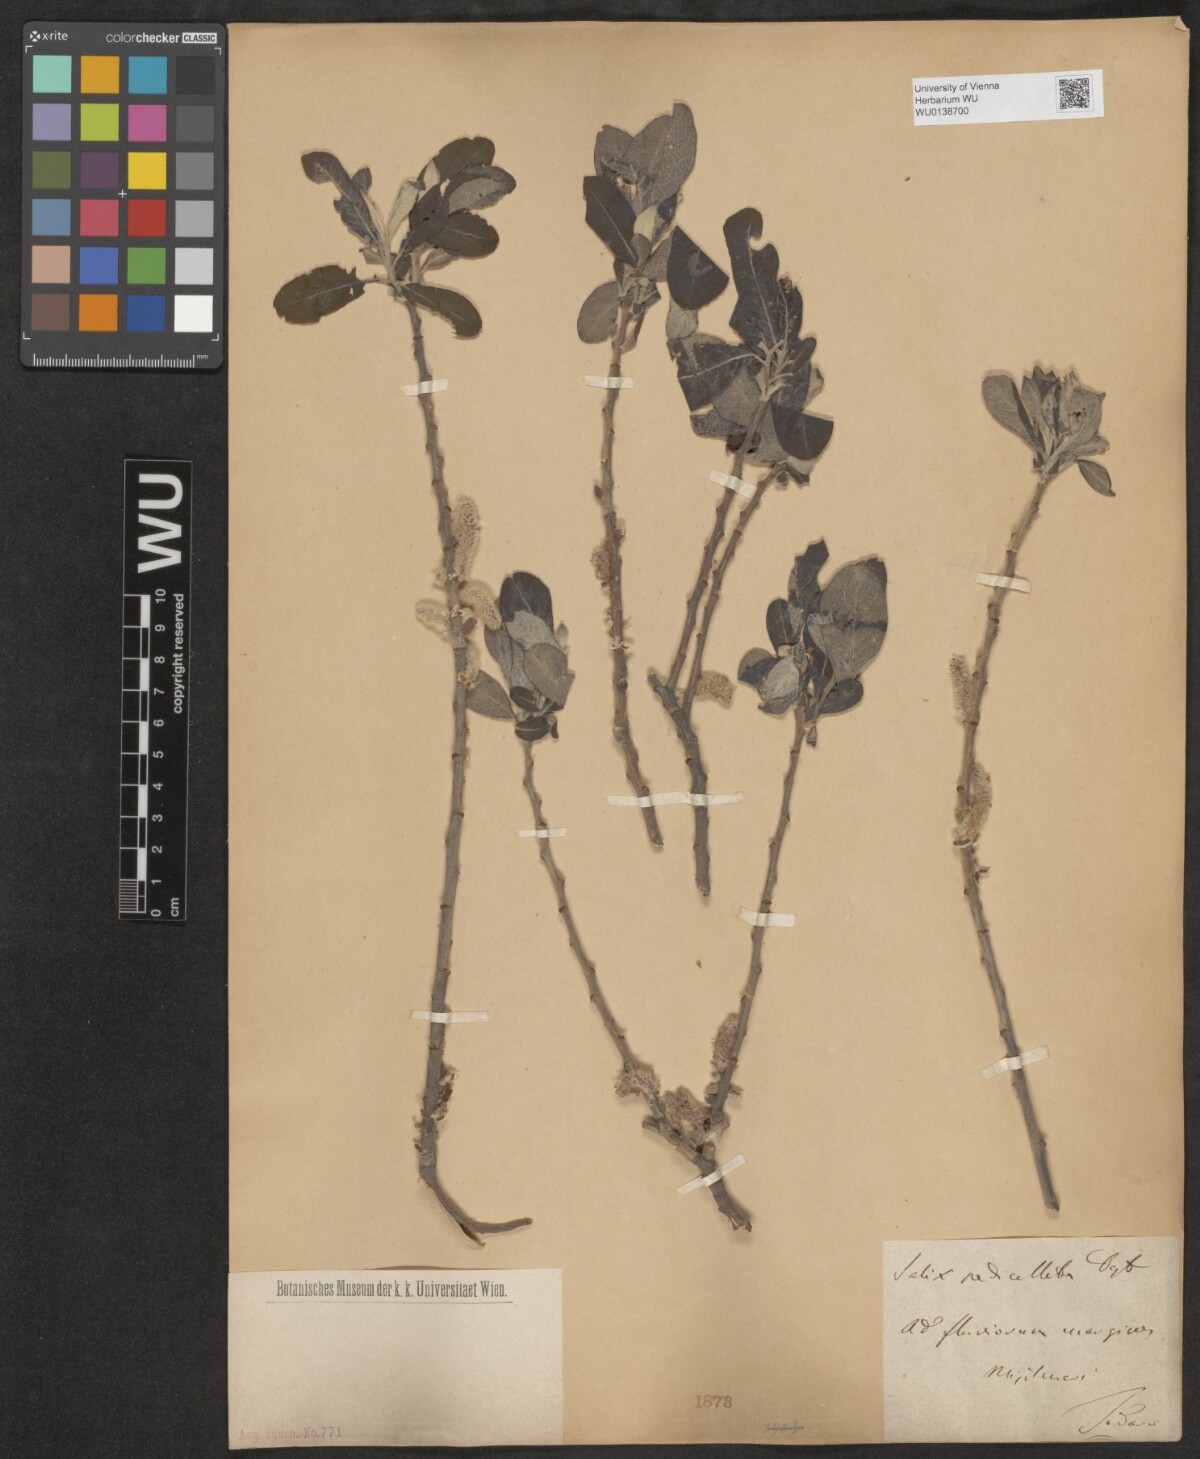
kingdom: Plantae
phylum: Tracheophyta
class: Magnoliopsida
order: Malpighiales
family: Salicaceae
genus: Salix
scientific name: Salix pedicellata
